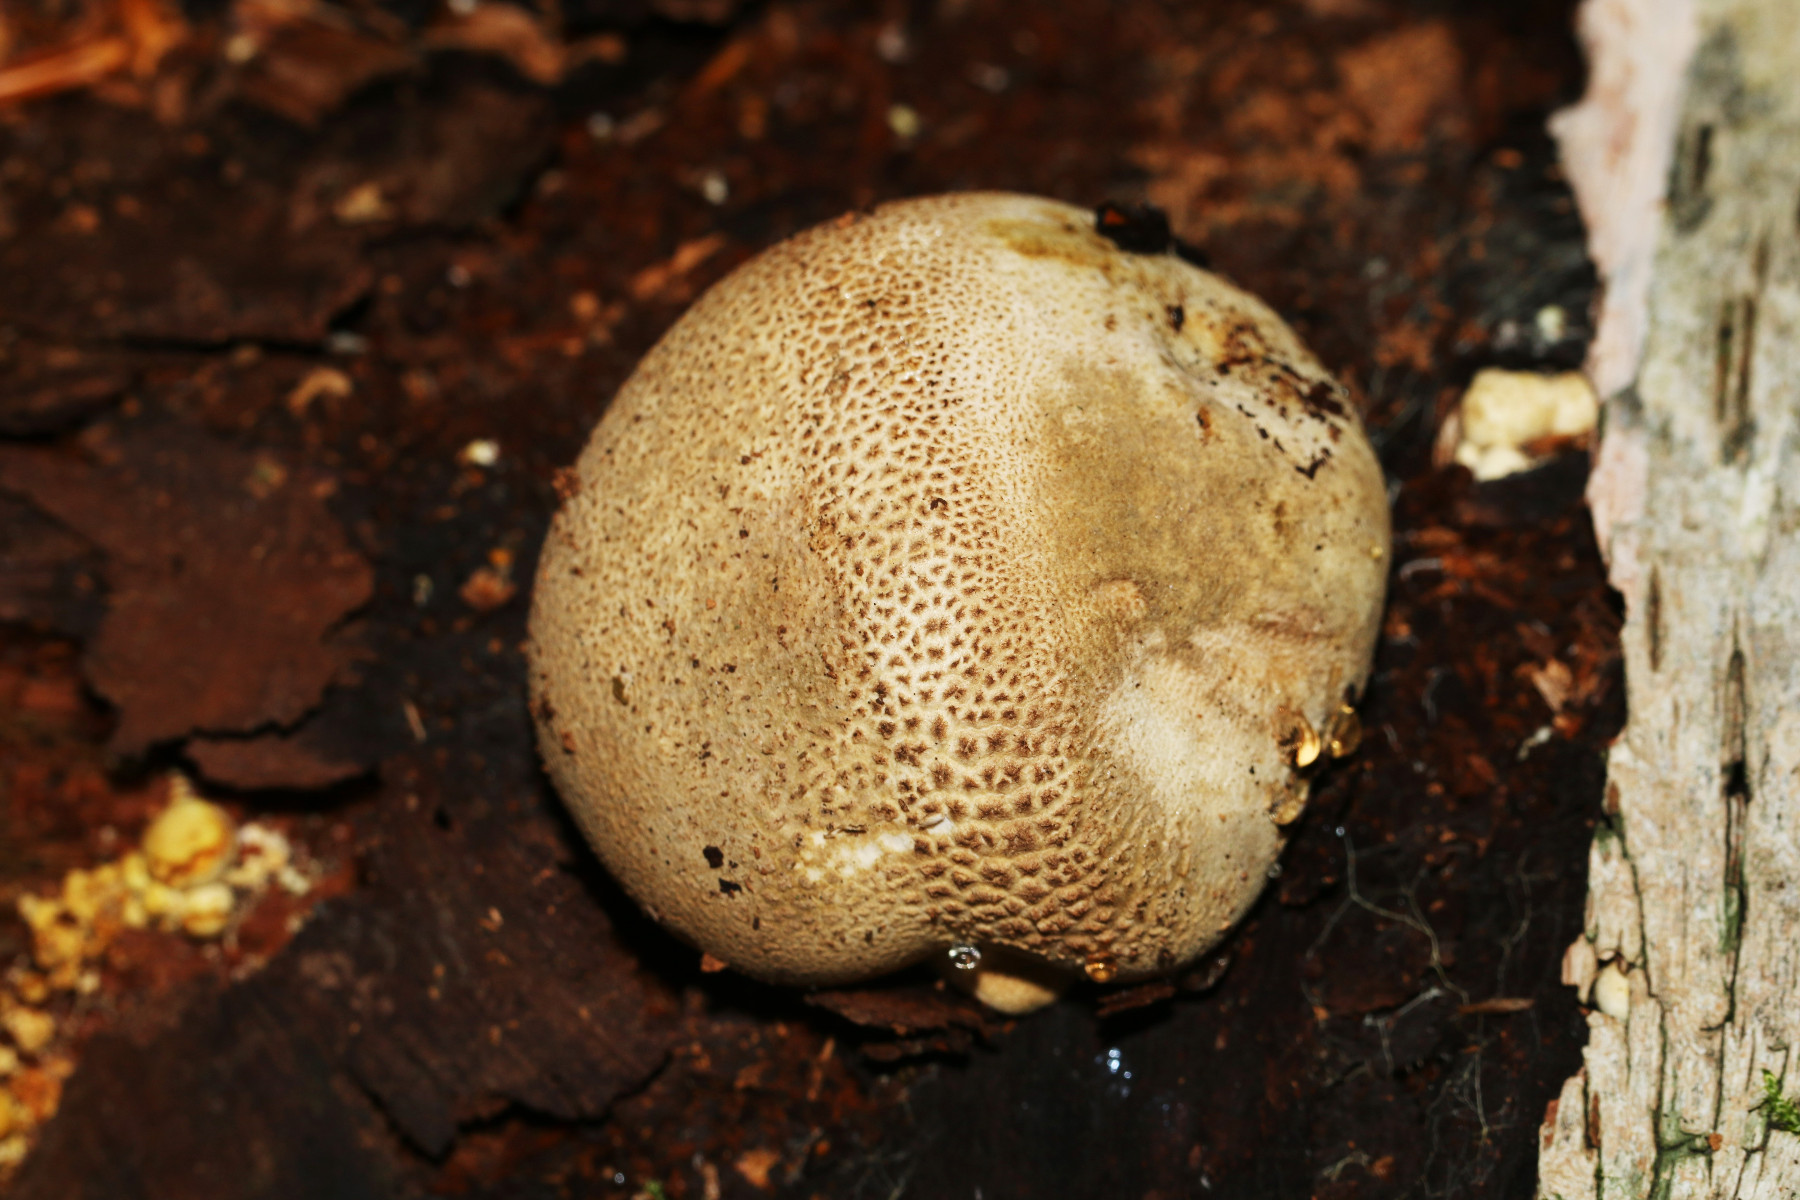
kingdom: Fungi
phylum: Basidiomycota
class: Agaricomycetes
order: Agaricales
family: Lycoperdaceae
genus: Apioperdon
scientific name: Apioperdon pyriforme
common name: pære-støvbold
